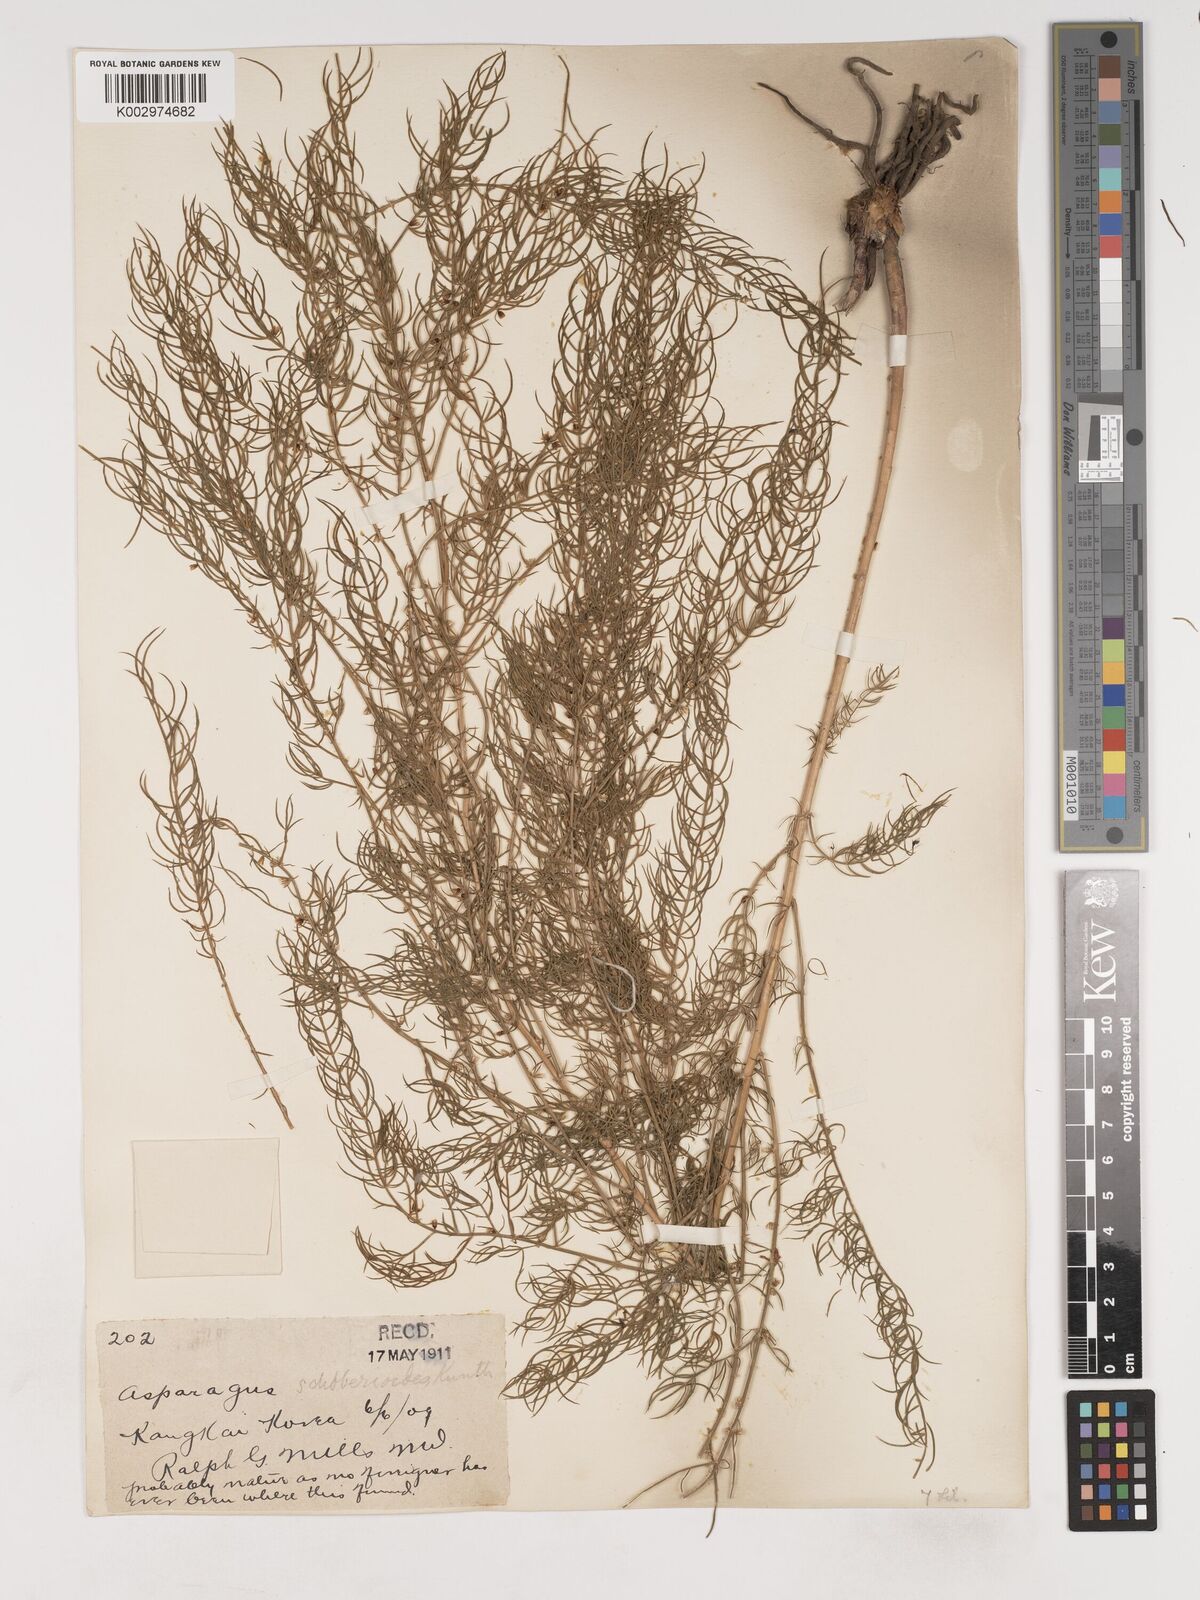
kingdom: Plantae
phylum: Tracheophyta
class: Liliopsida
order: Asparagales
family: Asparagaceae
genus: Asparagus
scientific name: Asparagus schoberioides
